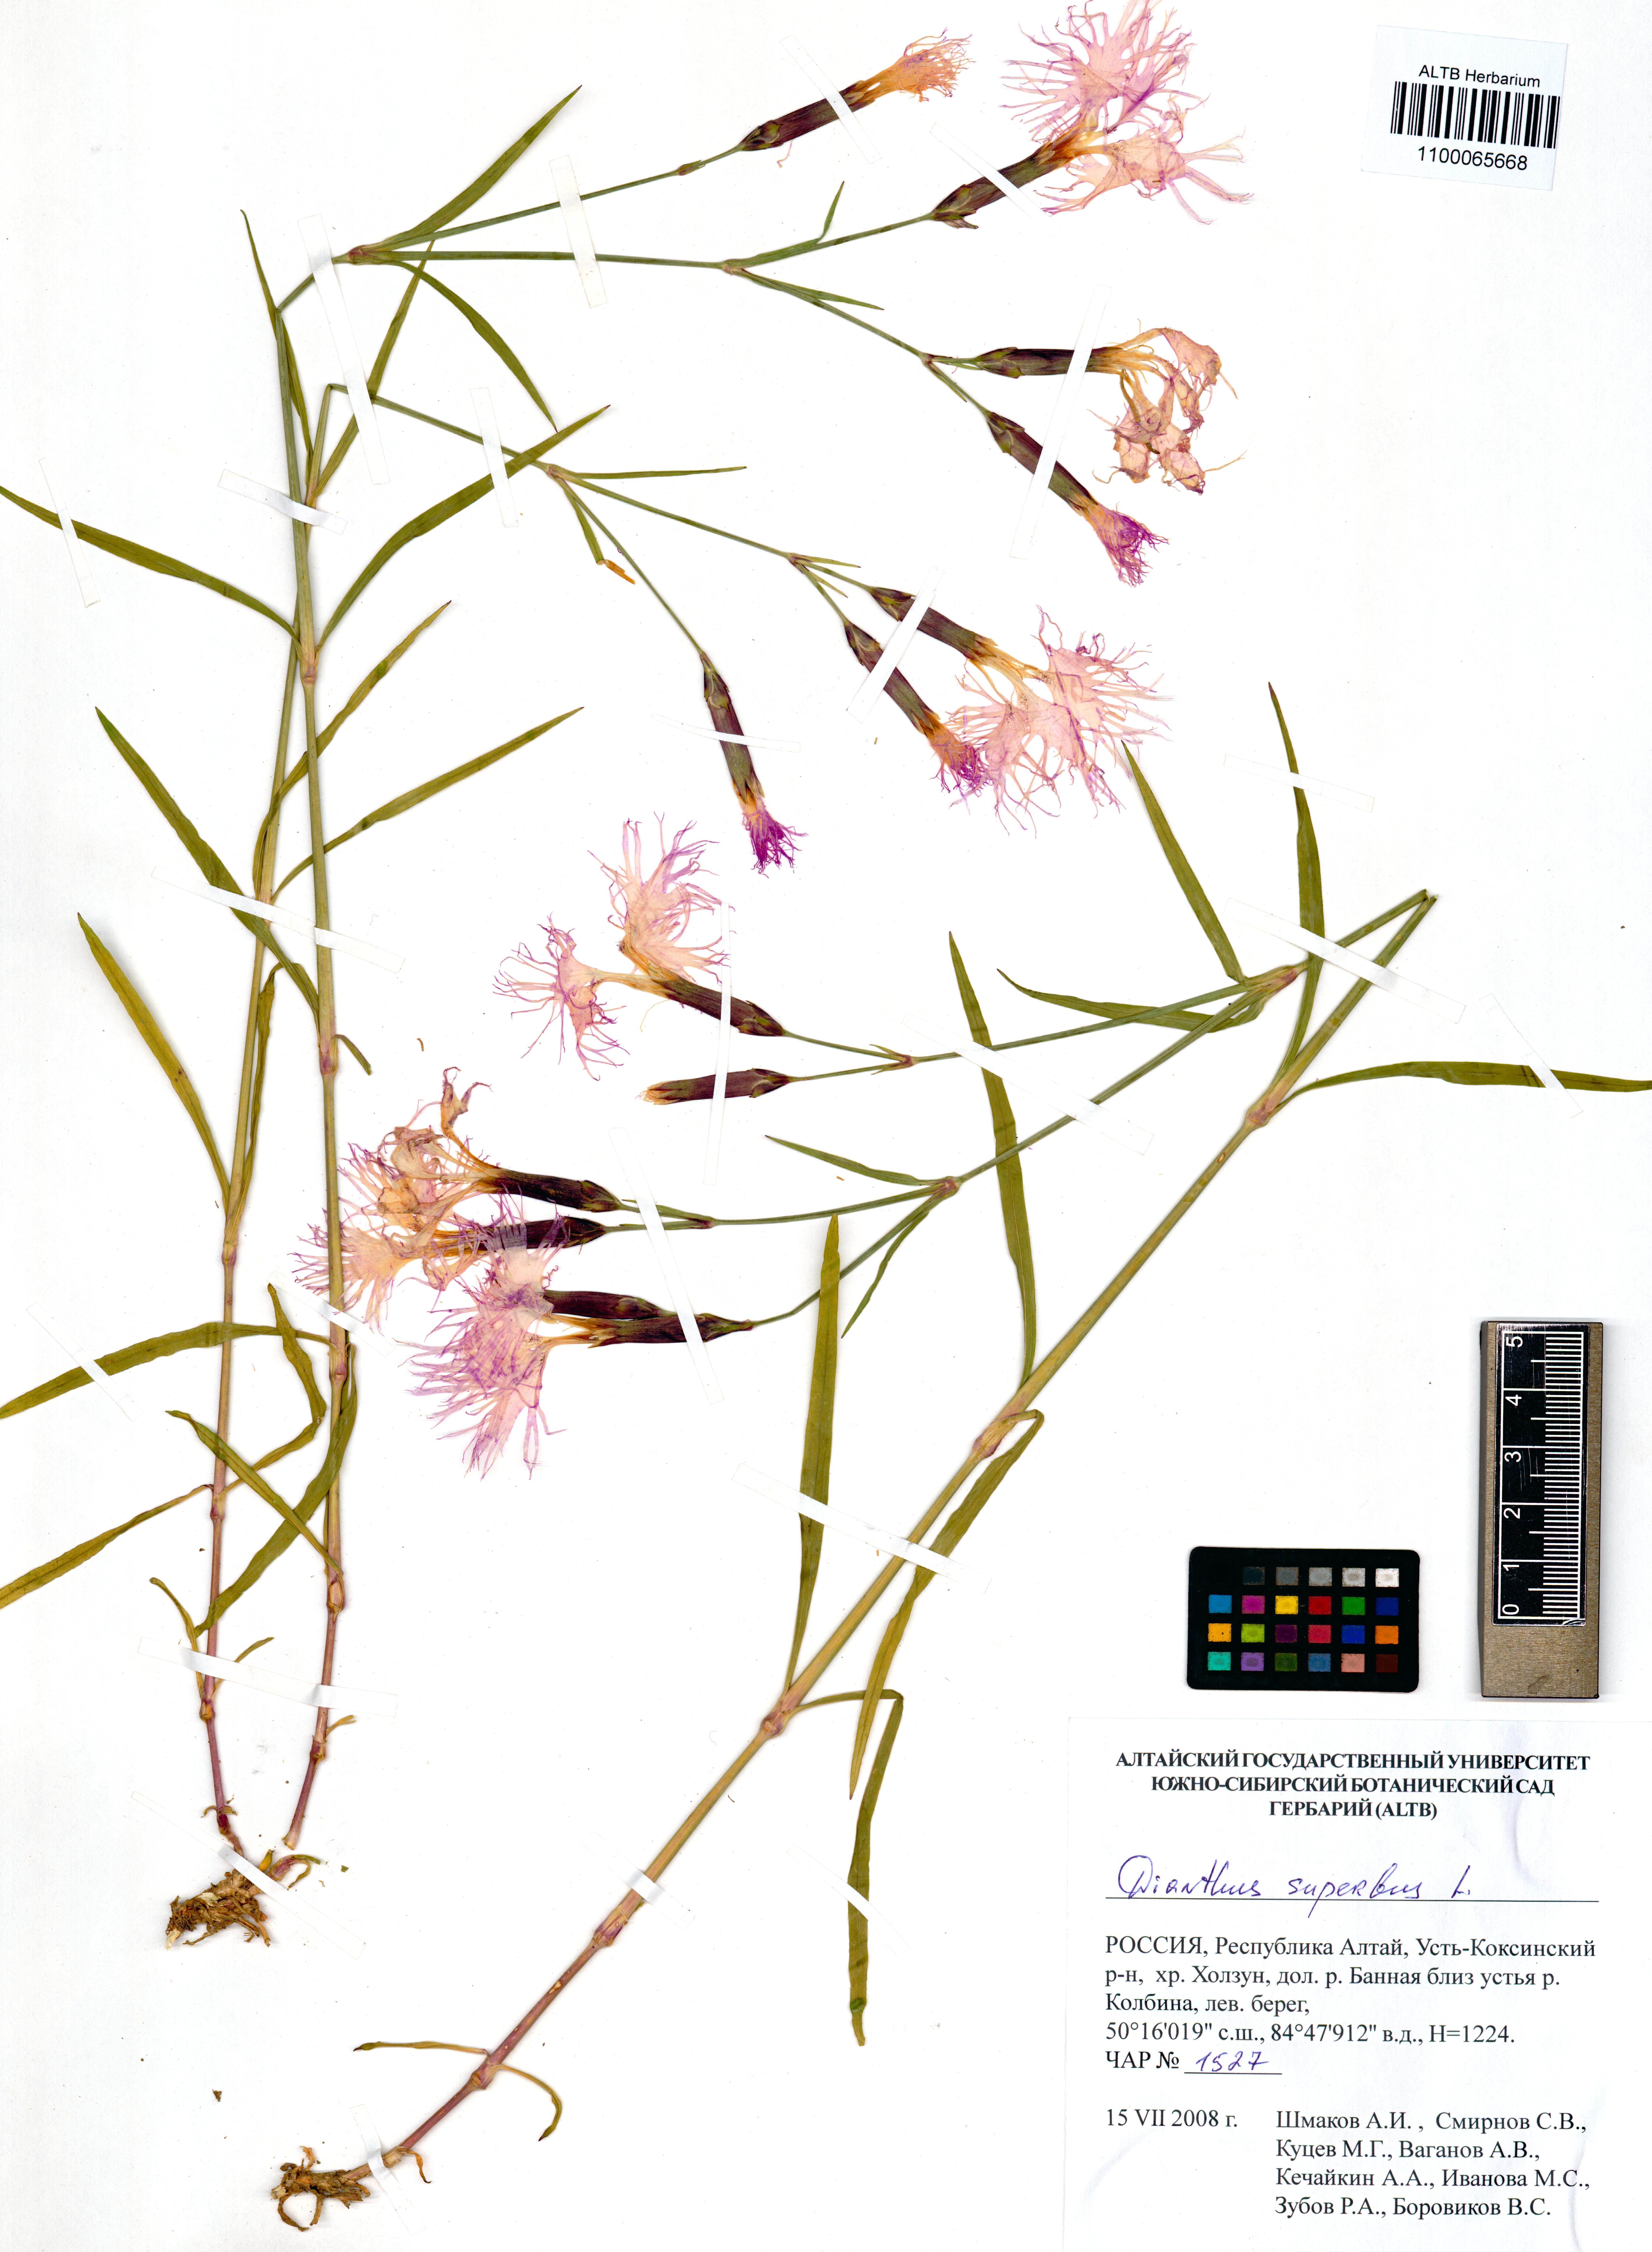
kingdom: Plantae
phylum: Tracheophyta
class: Magnoliopsida
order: Caryophyllales
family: Caryophyllaceae
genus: Dianthus
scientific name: Dianthus superbus
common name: Fringed pink
